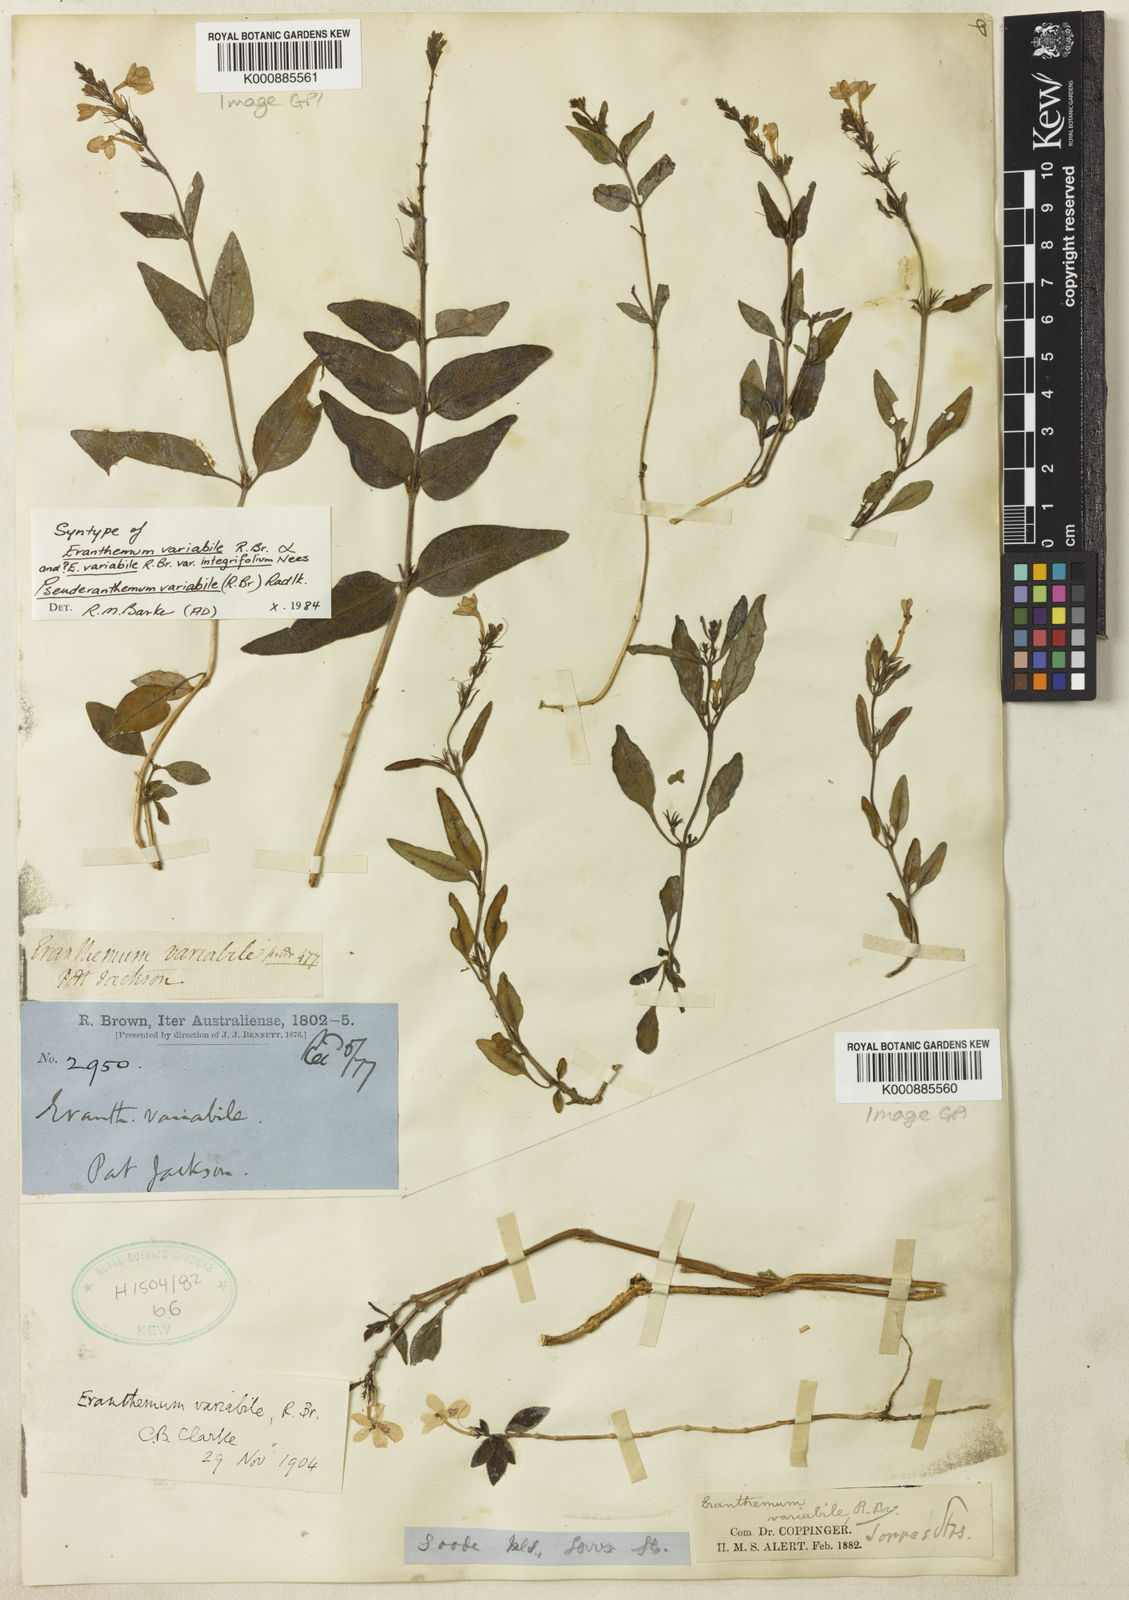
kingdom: Plantae
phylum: Tracheophyta
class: Magnoliopsida
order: Lamiales
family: Acanthaceae
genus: Pseuderanthemum
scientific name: Pseuderanthemum variabile
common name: Night and afternoon
